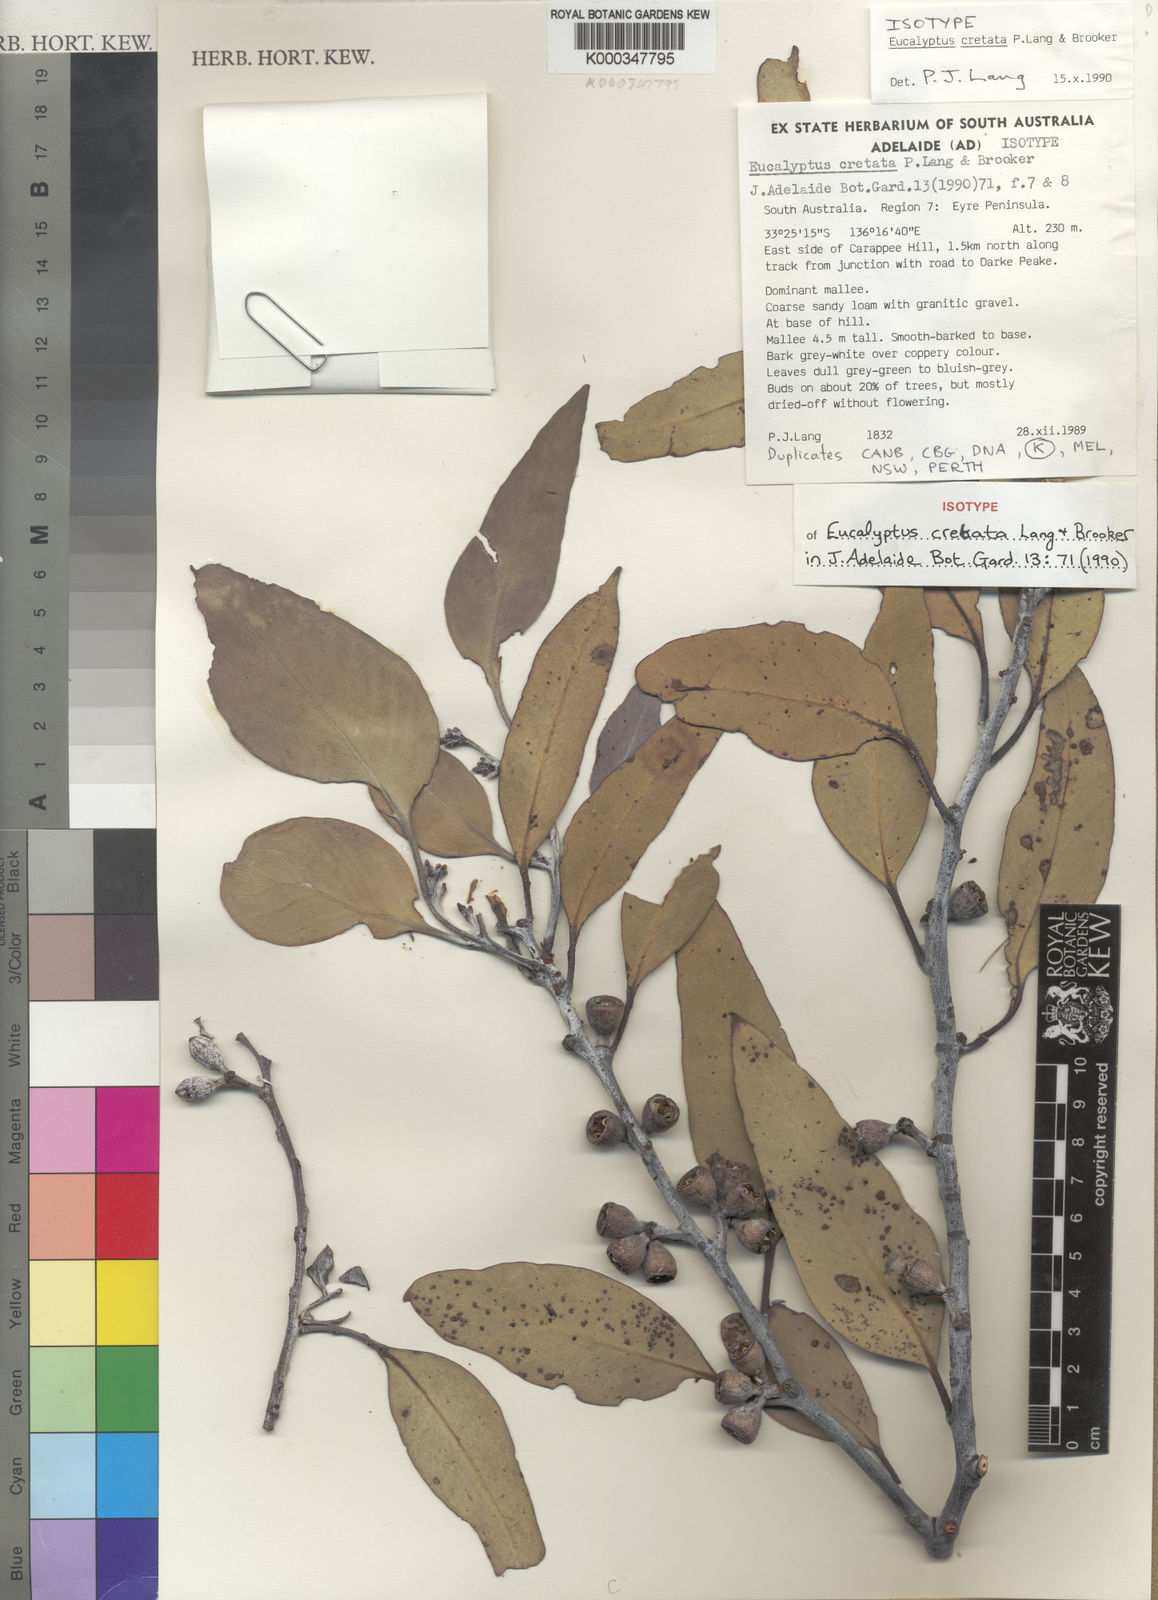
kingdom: Plantae
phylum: Tracheophyta
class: Magnoliopsida
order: Myrtales
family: Myrtaceae
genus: Eucalyptus
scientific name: Eucalyptus cretata
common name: Darke peak mallee
